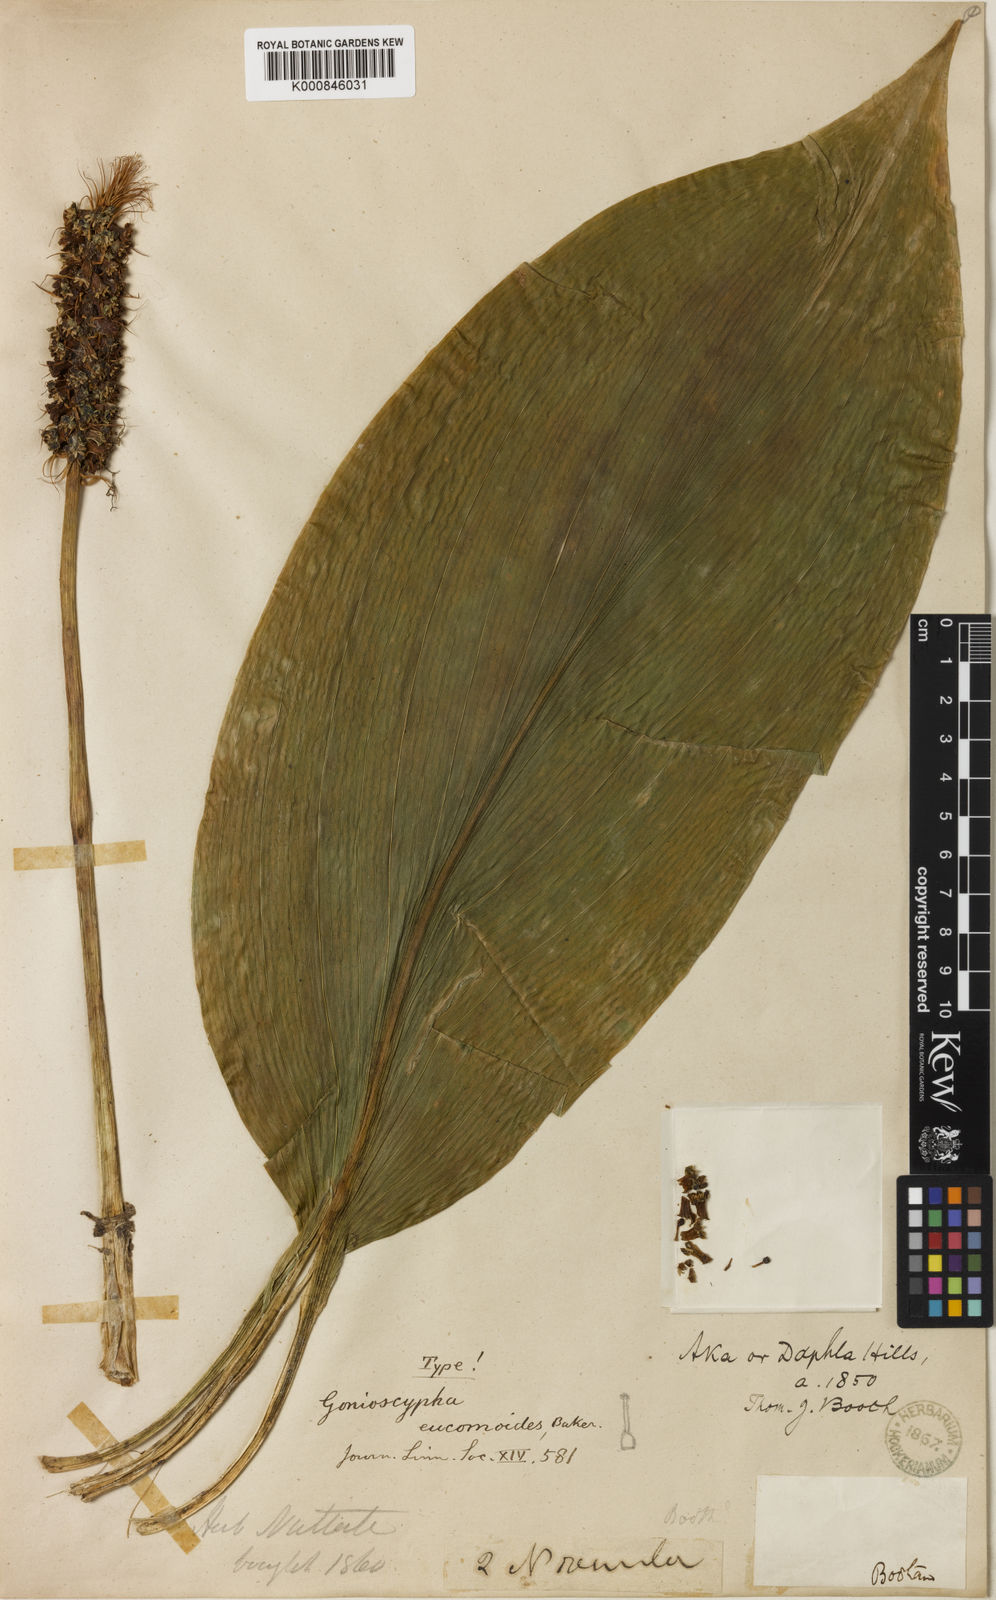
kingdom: Plantae
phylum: Tracheophyta
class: Liliopsida
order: Asparagales
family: Asparagaceae
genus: Rohdea
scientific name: Rohdea eucomoides
